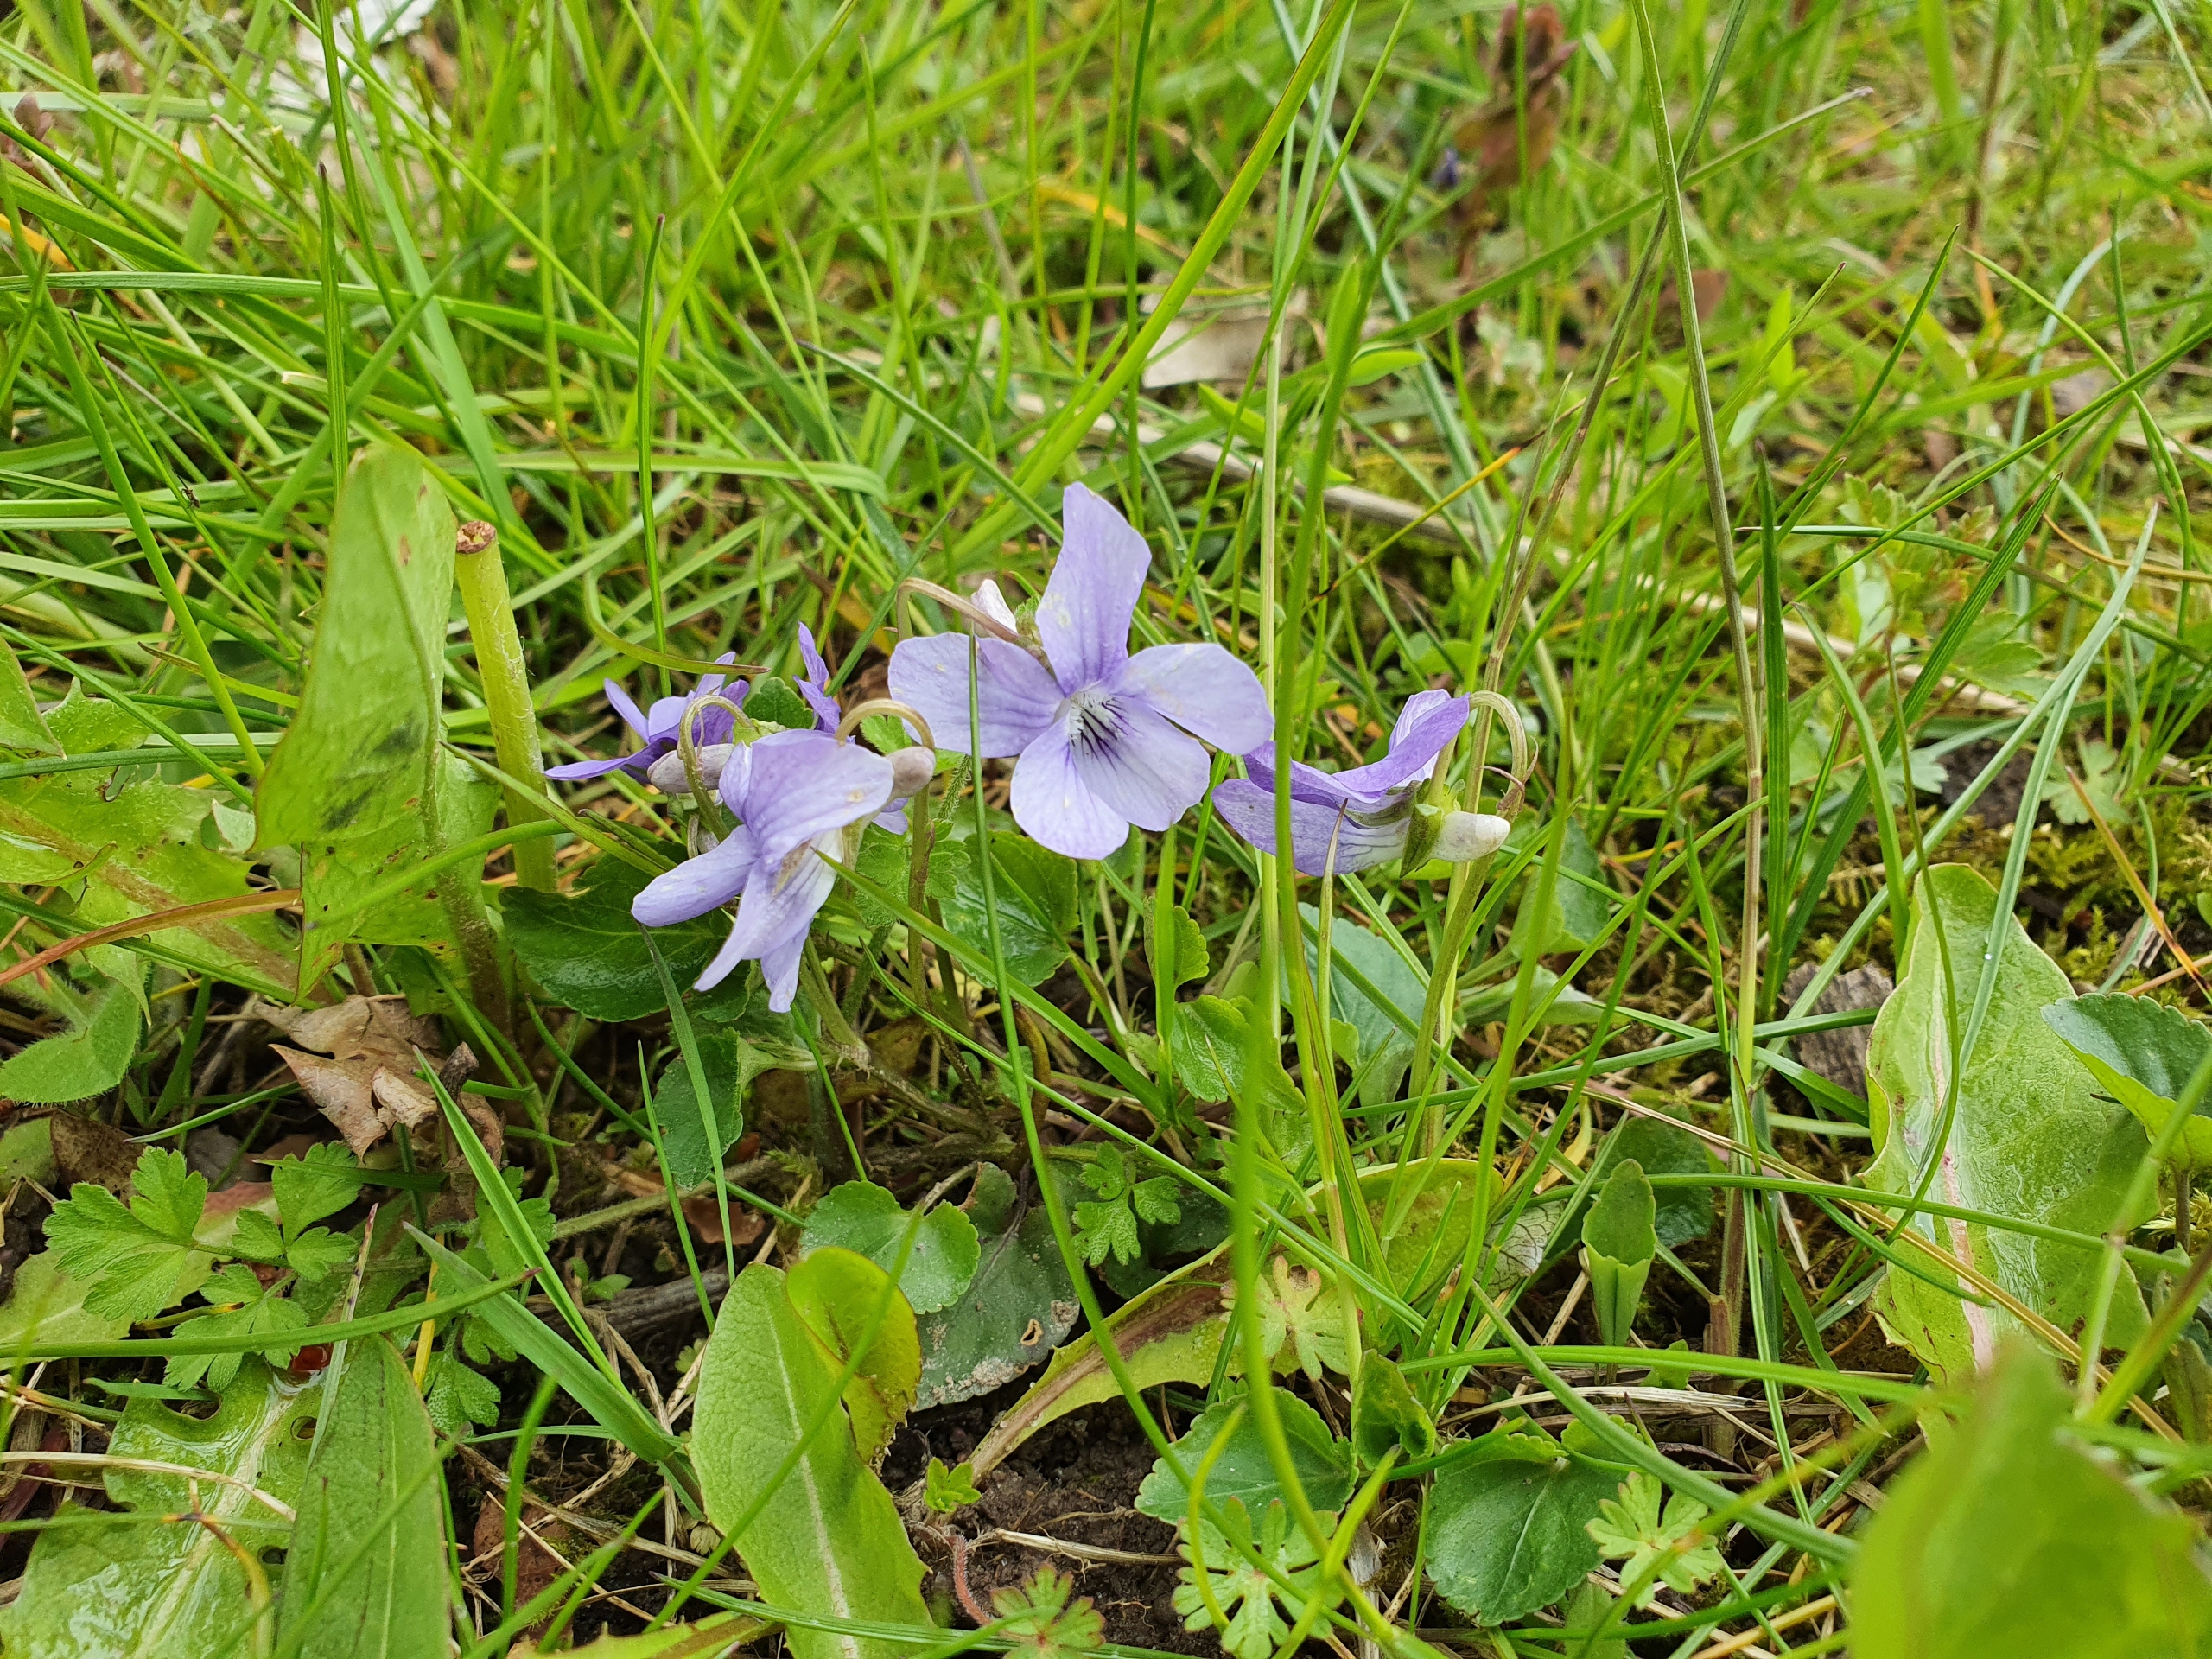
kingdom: Plantae
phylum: Tracheophyta
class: Magnoliopsida
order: Malpighiales
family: Violaceae
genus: Viola
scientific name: Viola riviniana
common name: Krat-viol
